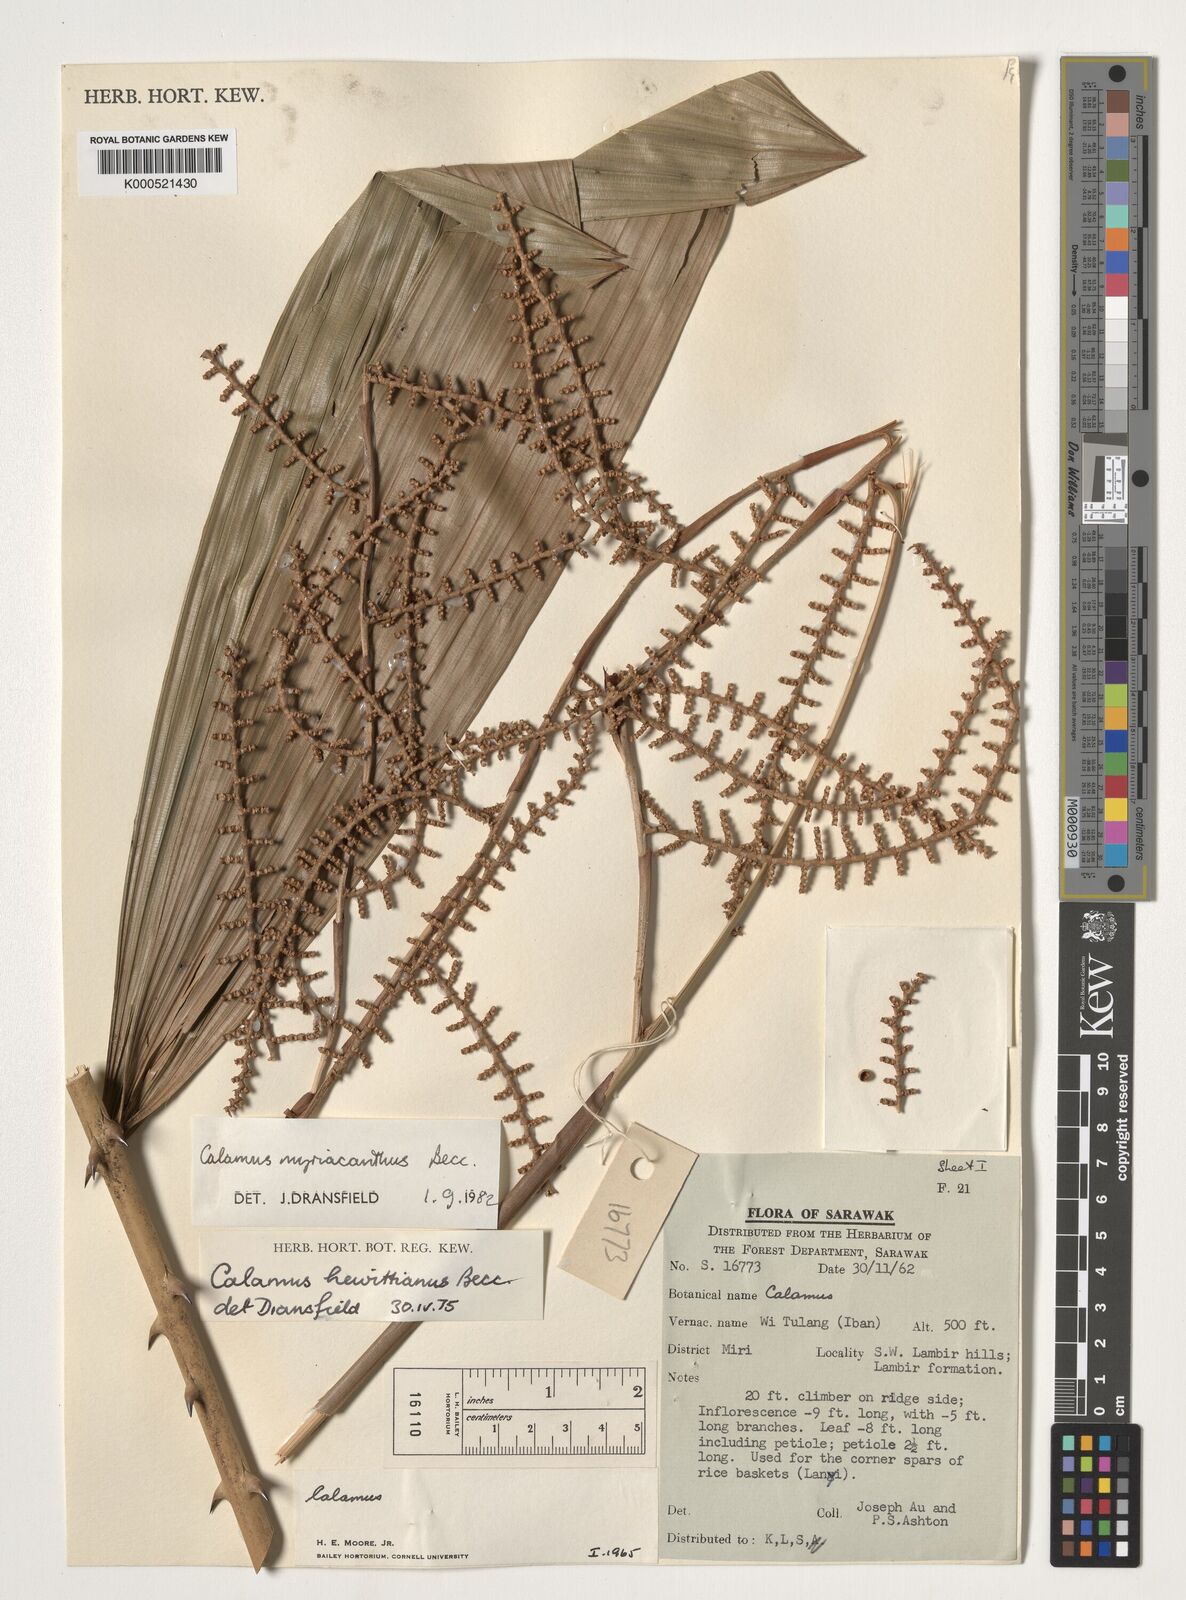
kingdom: Plantae
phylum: Tracheophyta
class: Liliopsida
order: Arecales
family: Arecaceae
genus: Calamus
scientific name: Calamus myriacanthus
